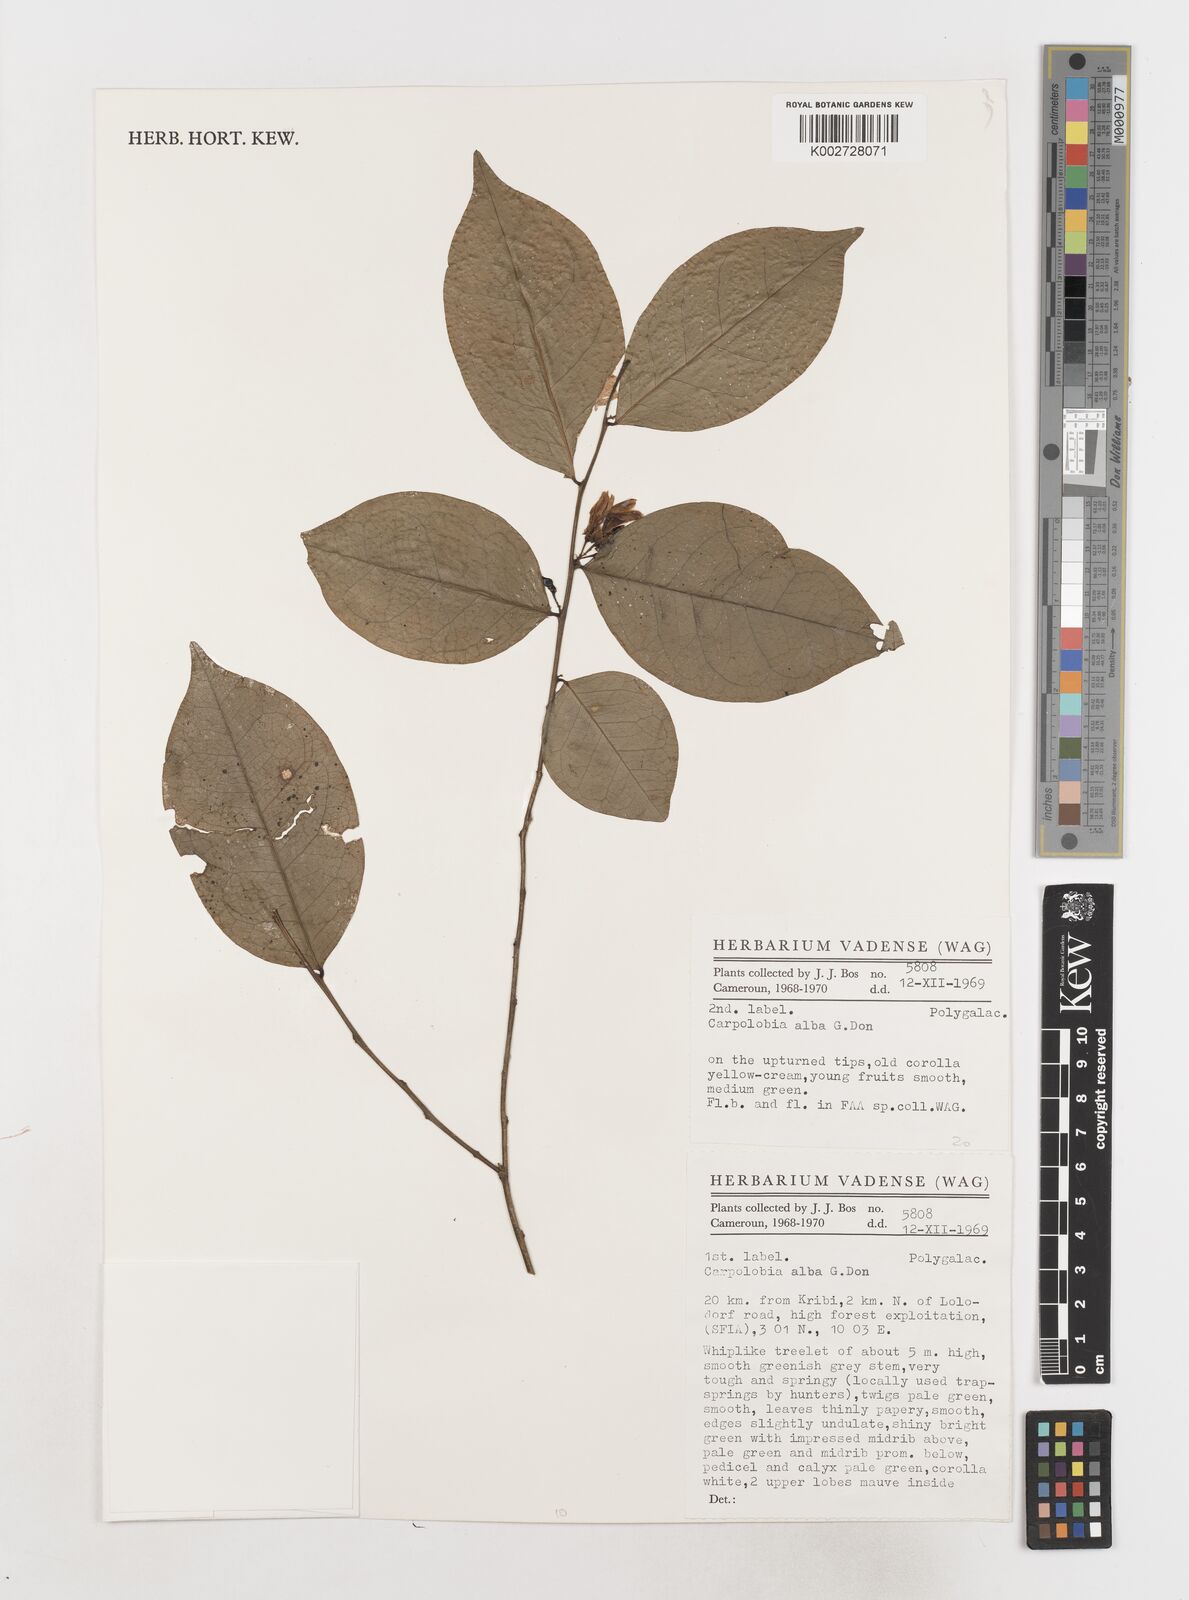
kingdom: Plantae
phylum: Tracheophyta
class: Magnoliopsida
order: Fabales
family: Polygalaceae
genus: Carpolobia
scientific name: Carpolobia alba
